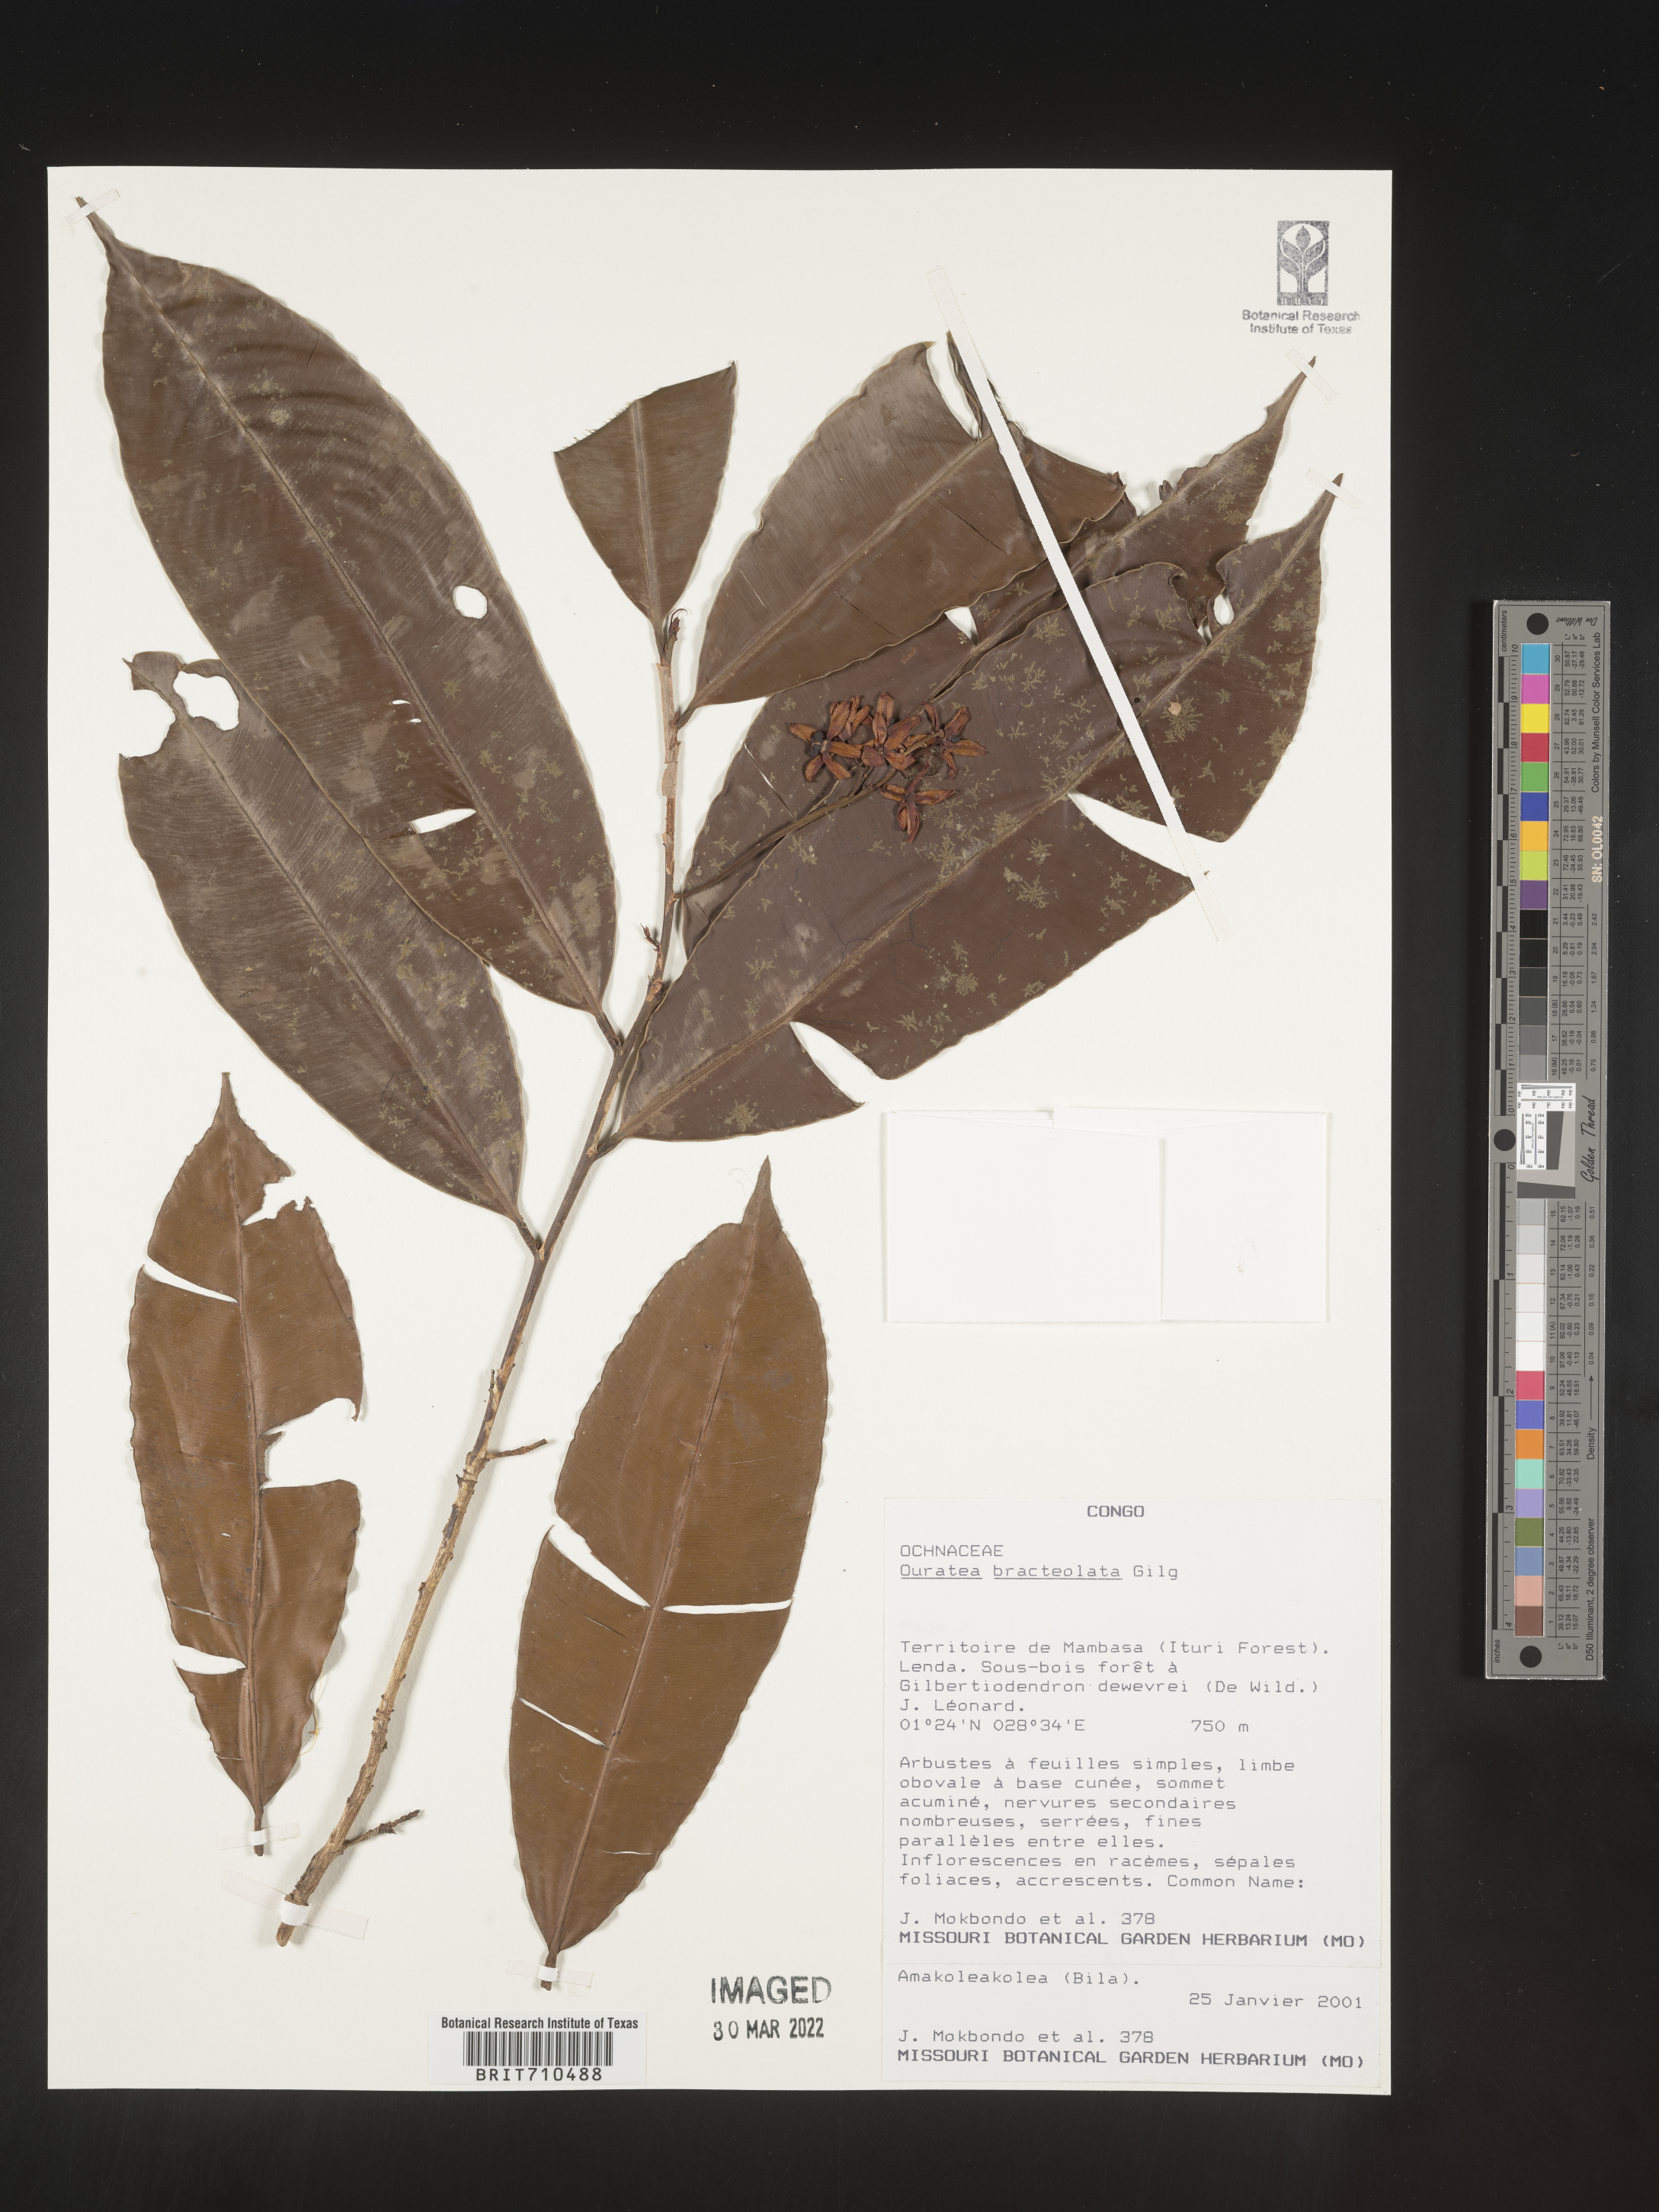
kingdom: Plantae
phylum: Tracheophyta
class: Magnoliopsida
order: Malpighiales
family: Ochnaceae
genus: Ouratea
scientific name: Ouratea
